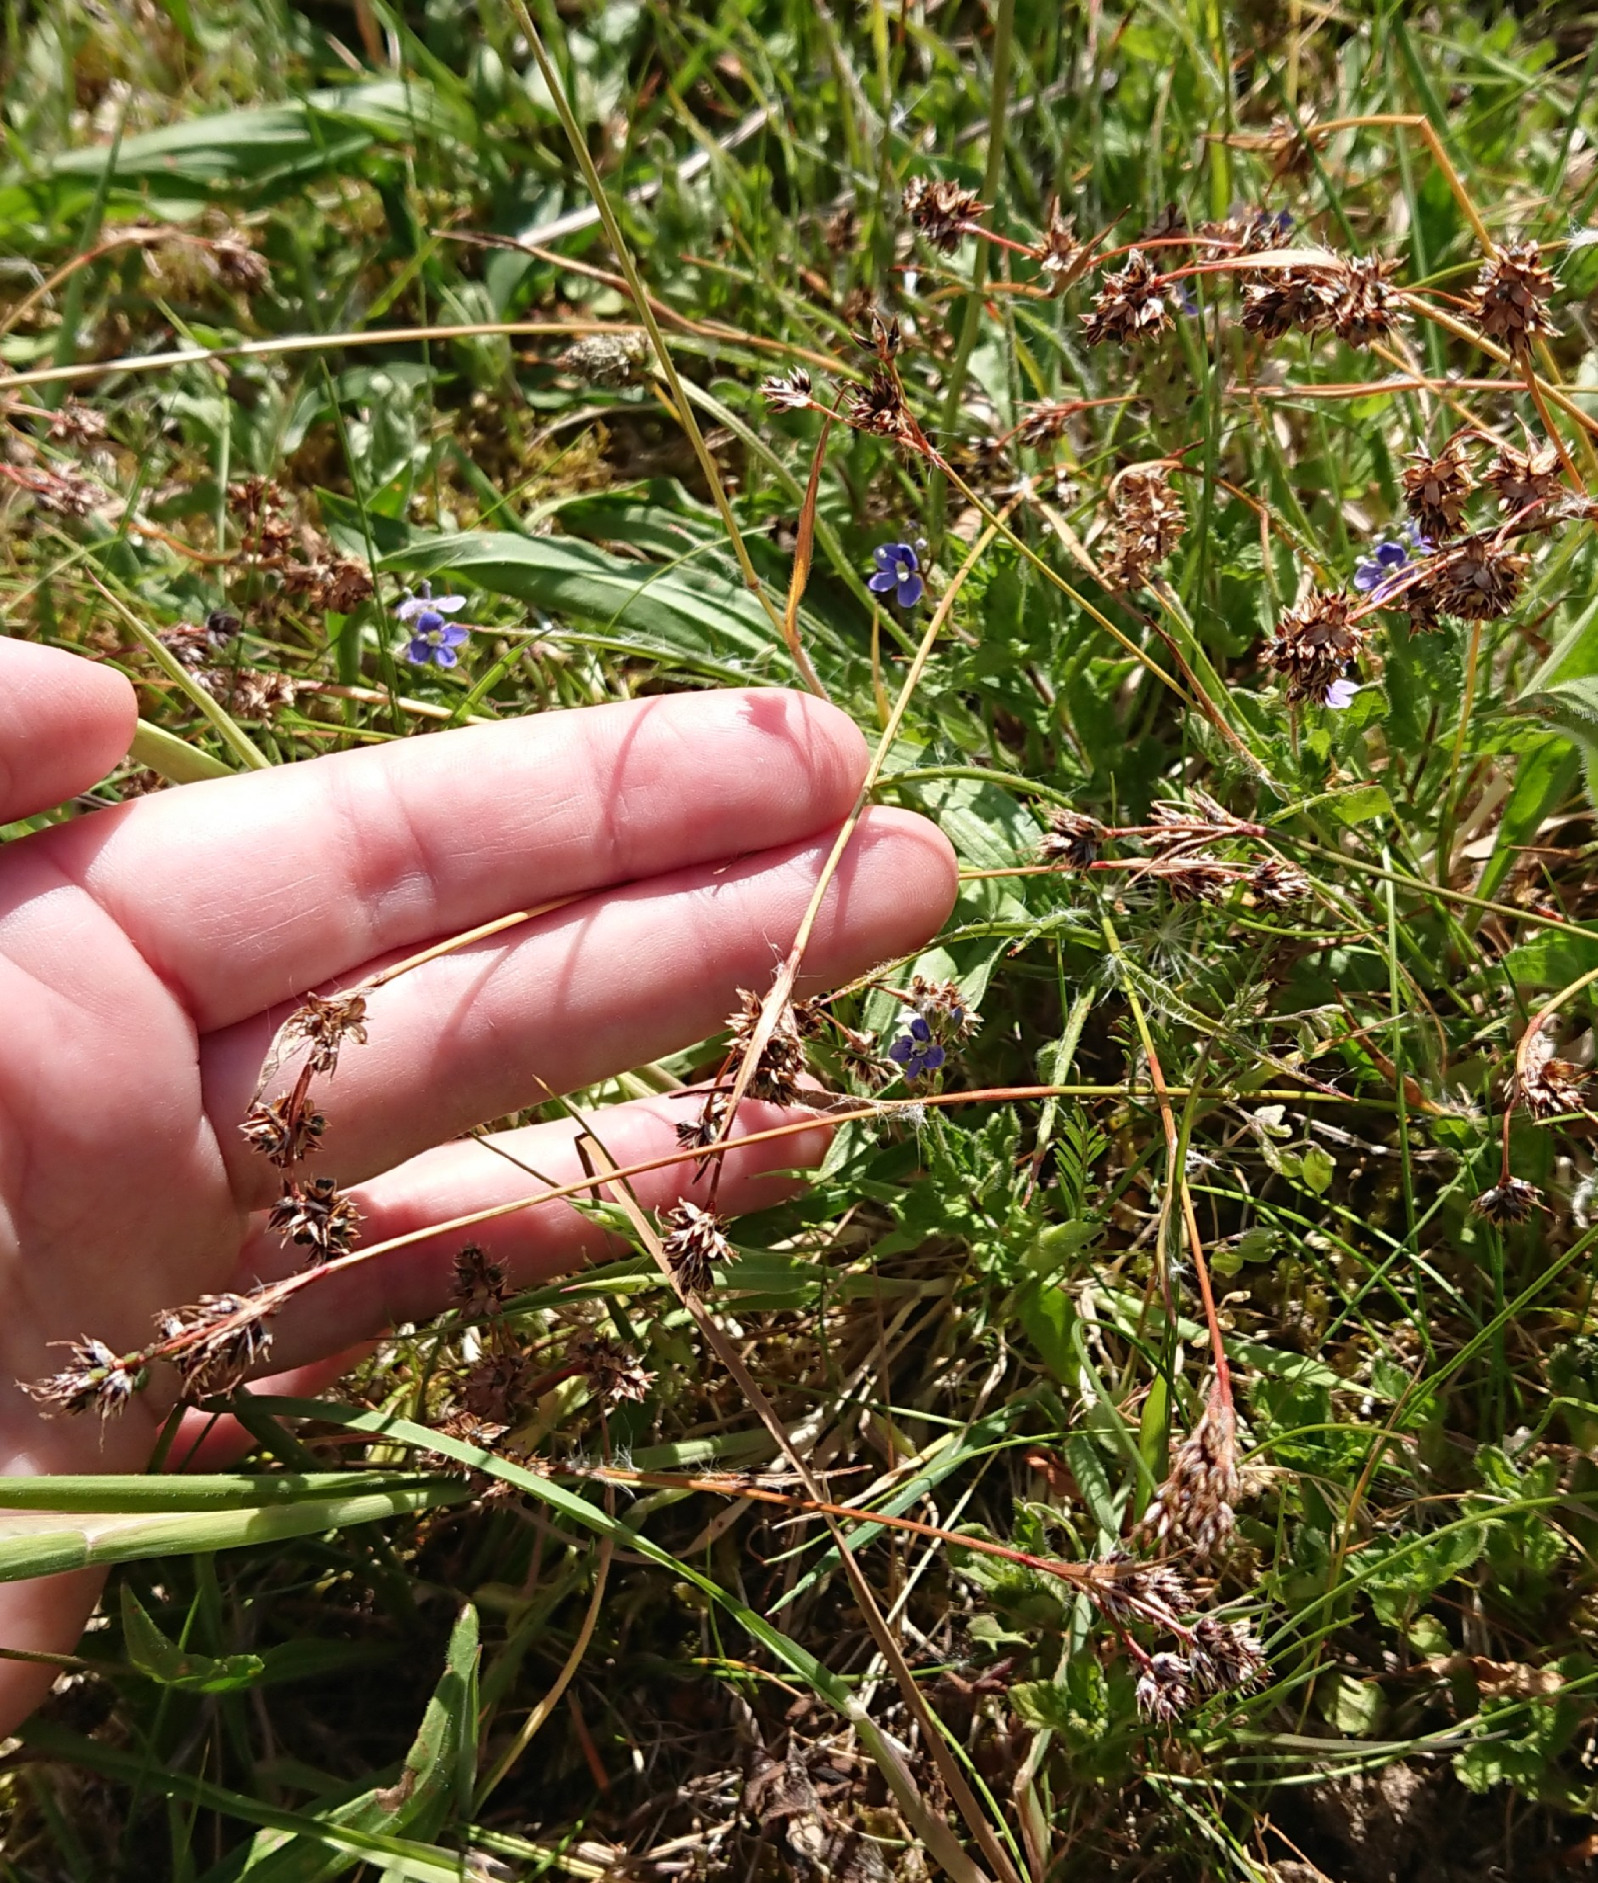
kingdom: Plantae
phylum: Tracheophyta
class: Liliopsida
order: Poales
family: Juncaceae
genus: Luzula
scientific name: Luzula campestris
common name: Mark-frytle
